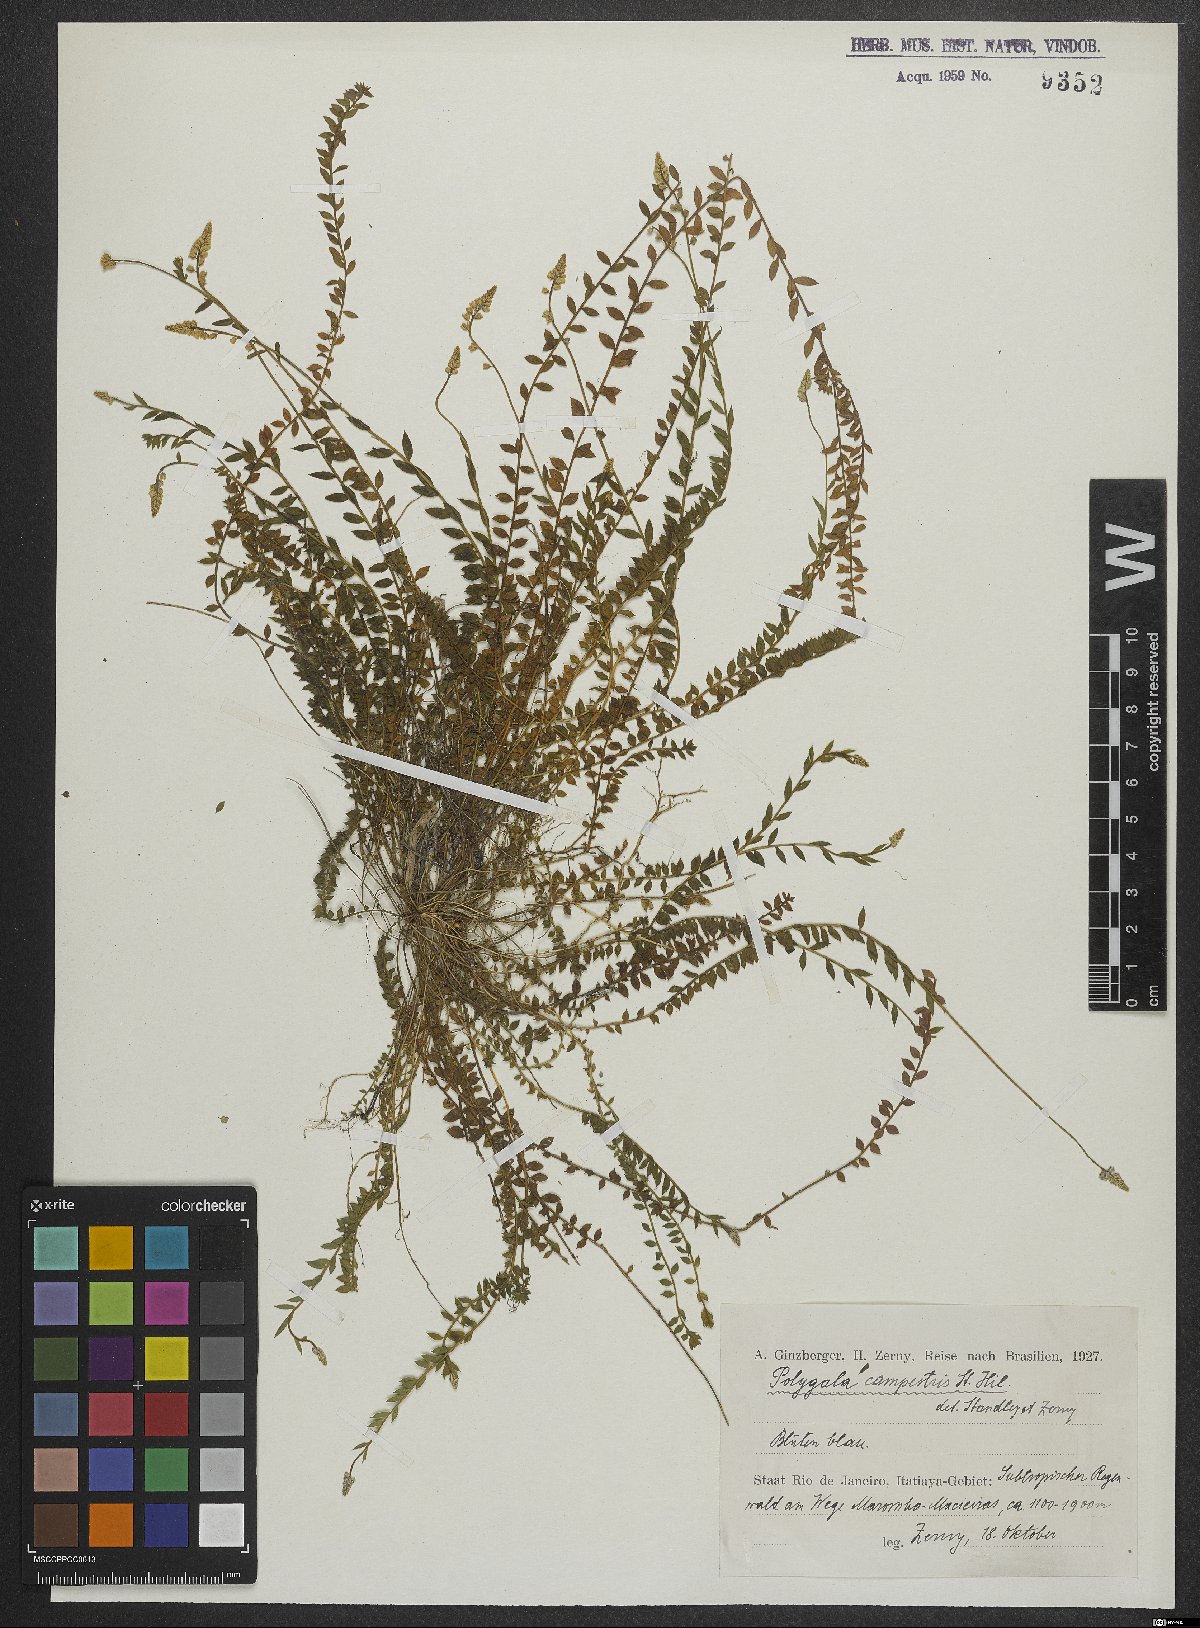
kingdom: Plantae
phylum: Tracheophyta
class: Magnoliopsida
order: Fabales
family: Polygalaceae
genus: Polygala
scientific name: Polygala campestris
